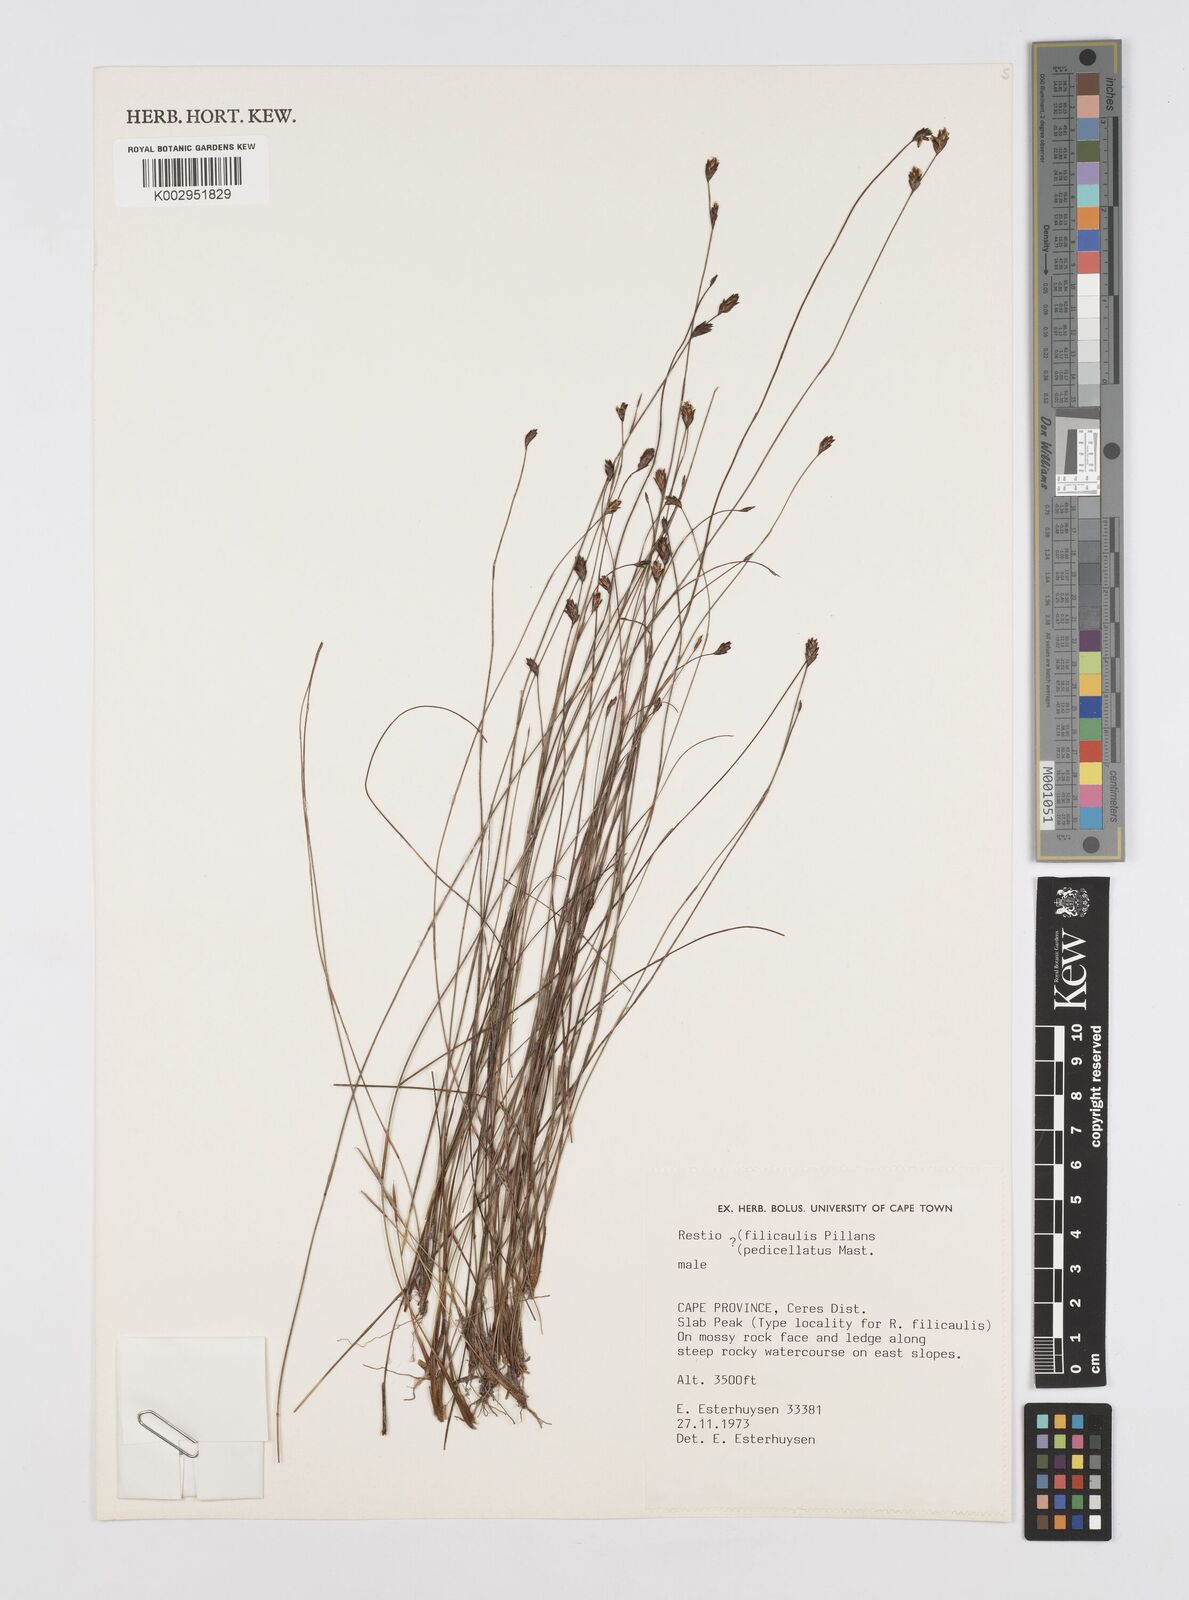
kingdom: Plantae
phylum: Tracheophyta
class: Liliopsida
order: Poales
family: Restionaceae
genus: Restio
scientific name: Restio
